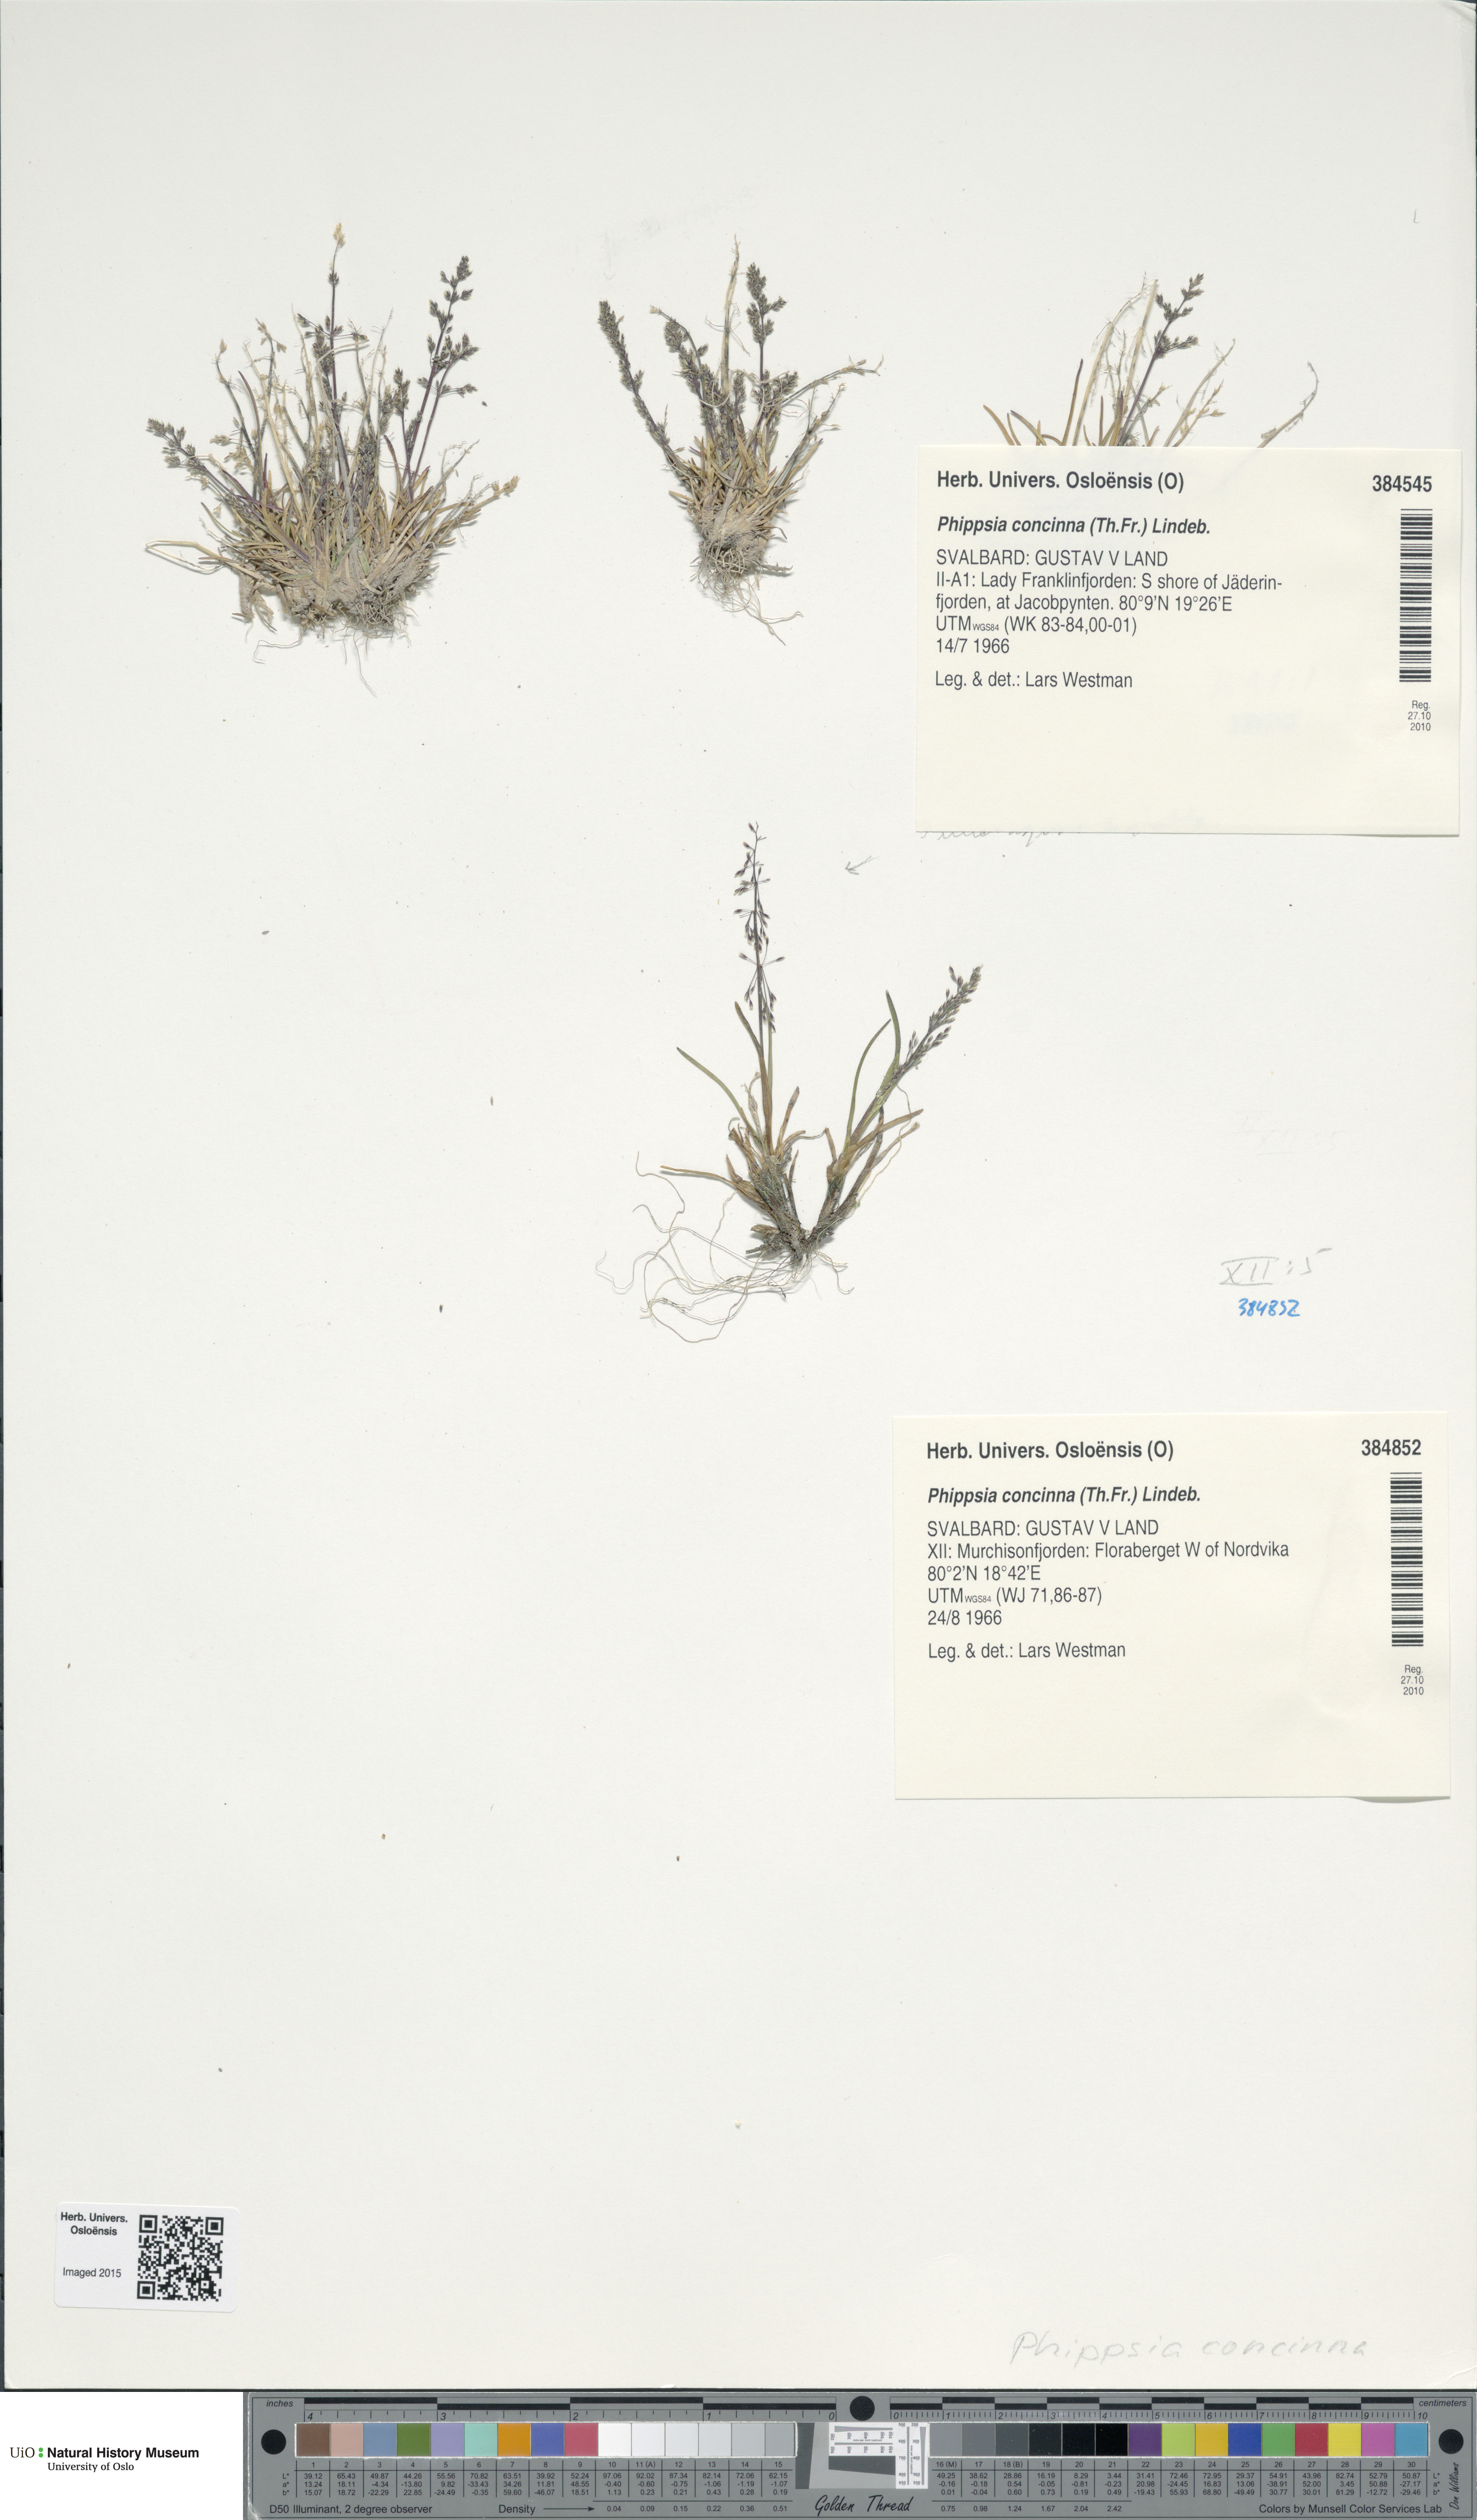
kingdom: Plantae
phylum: Tracheophyta
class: Liliopsida
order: Poales
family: Poaceae
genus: Phippsia
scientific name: Phippsia concinna
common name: Snowgrass
